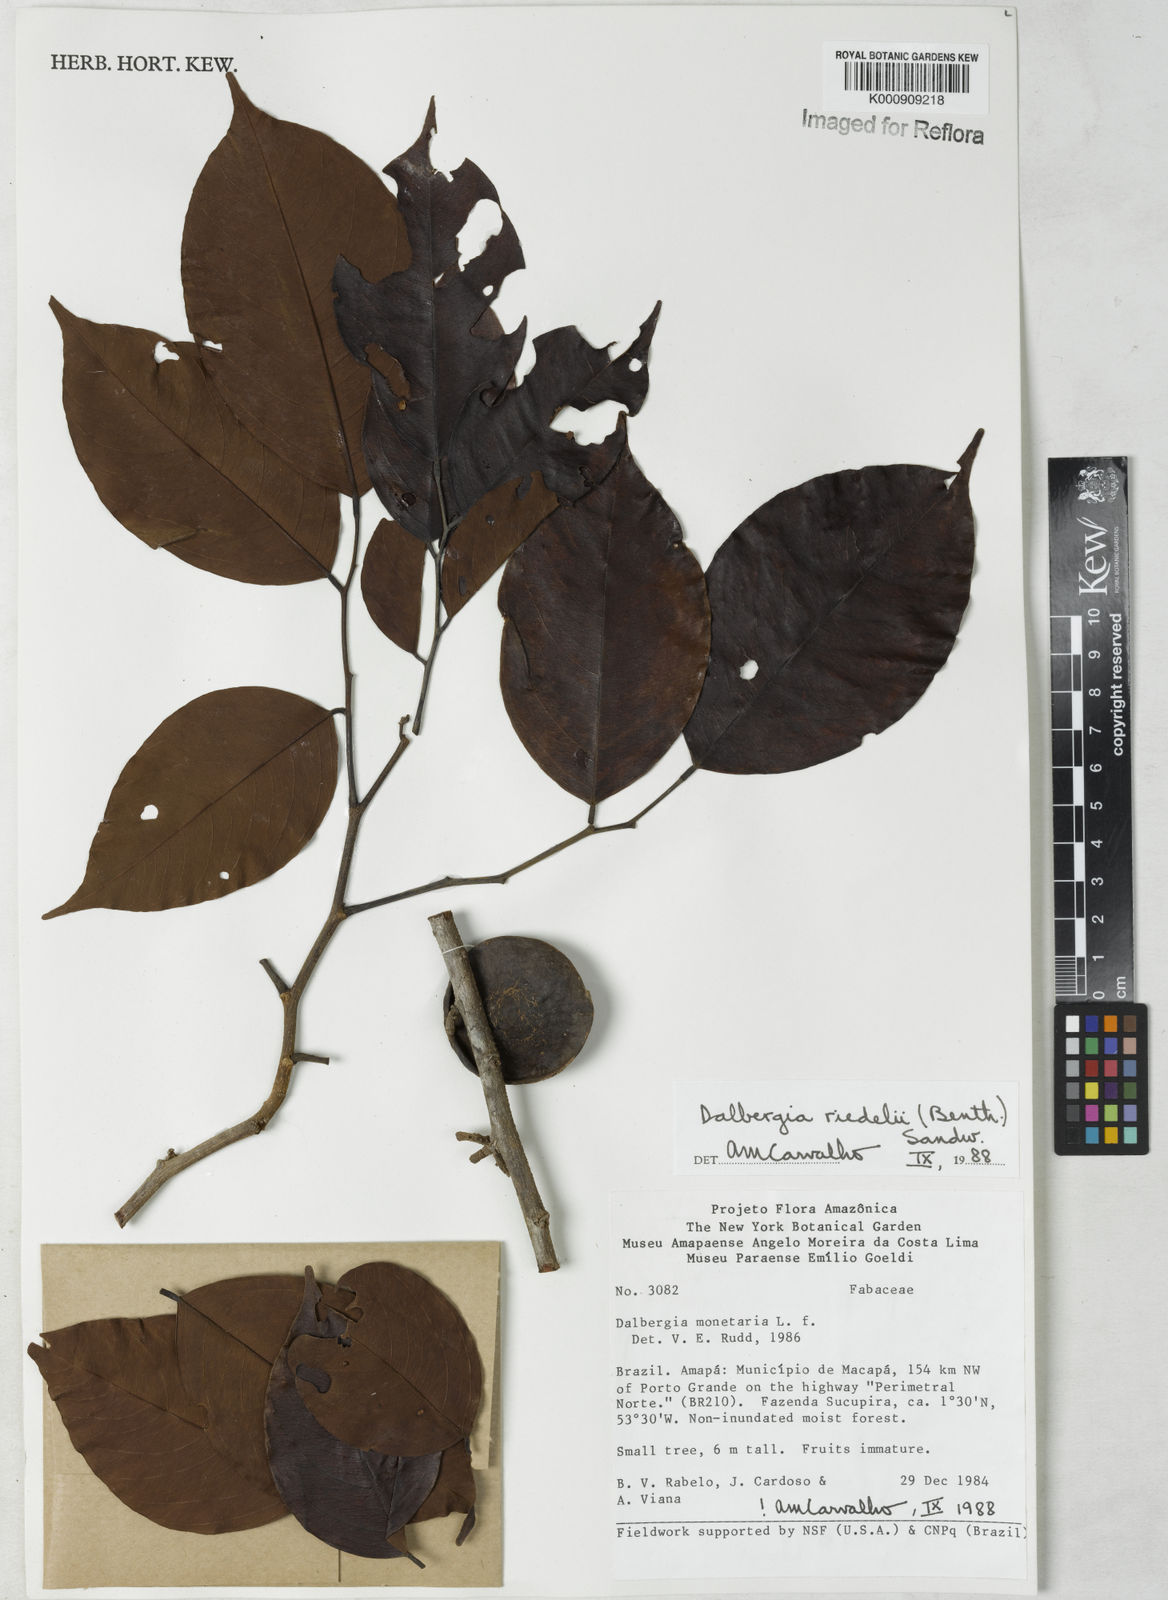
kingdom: Plantae
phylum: Tracheophyta
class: Magnoliopsida
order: Fabales
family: Fabaceae
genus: Dalbergia
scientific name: Dalbergia riedelii
